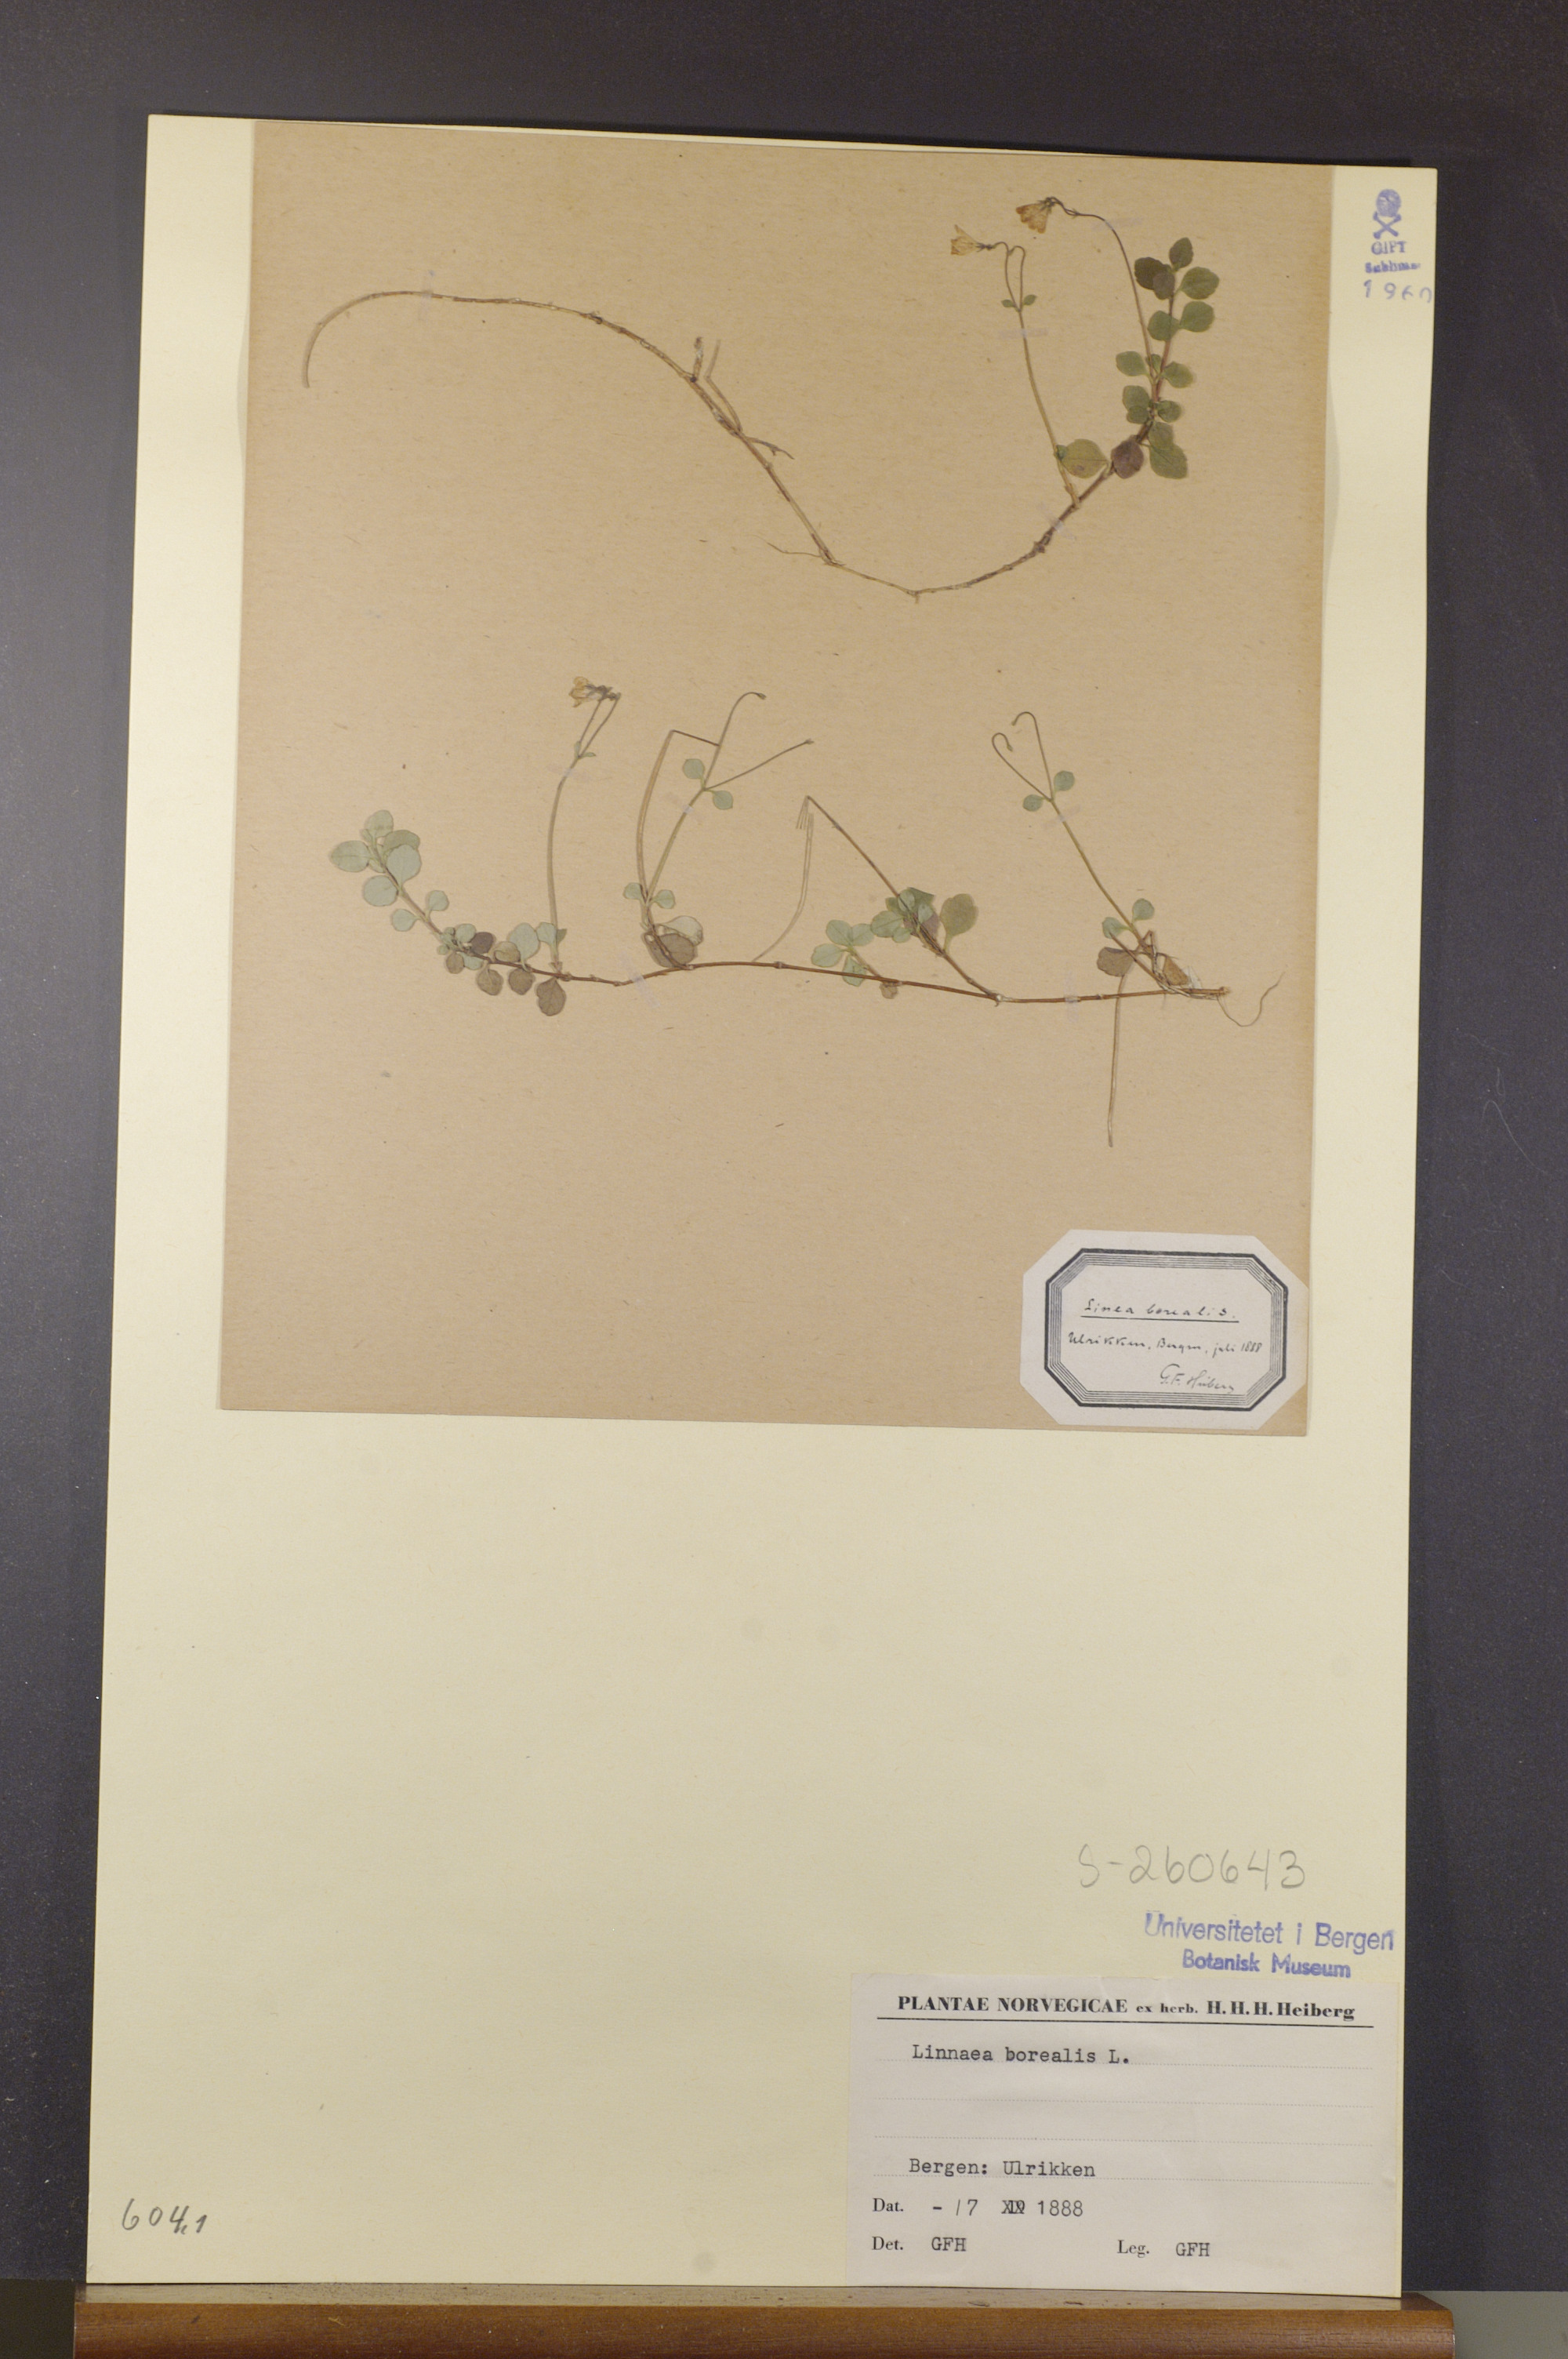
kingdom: Plantae
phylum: Tracheophyta
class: Magnoliopsida
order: Dipsacales
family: Caprifoliaceae
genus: Linnaea
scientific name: Linnaea borealis
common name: Twinflower
